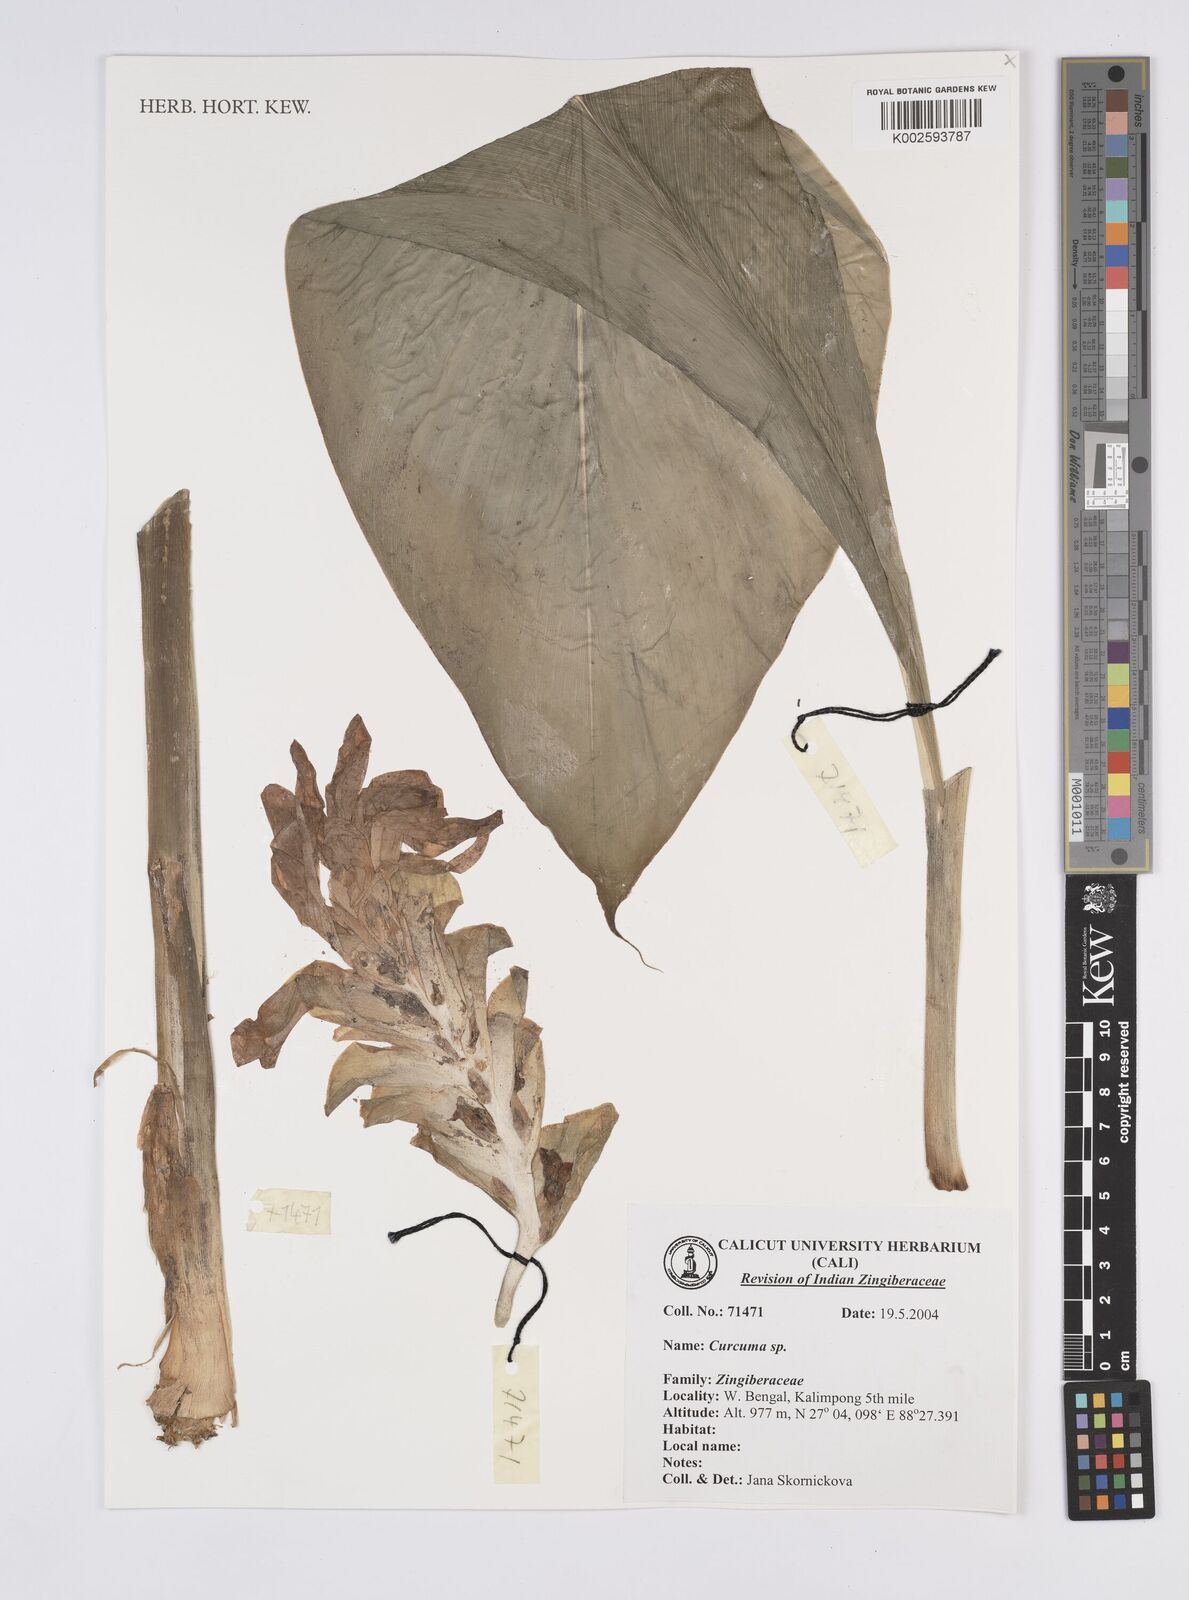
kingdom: Plantae
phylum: Tracheophyta
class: Liliopsida
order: Zingiberales
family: Zingiberaceae
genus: Curcuma
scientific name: Curcuma
